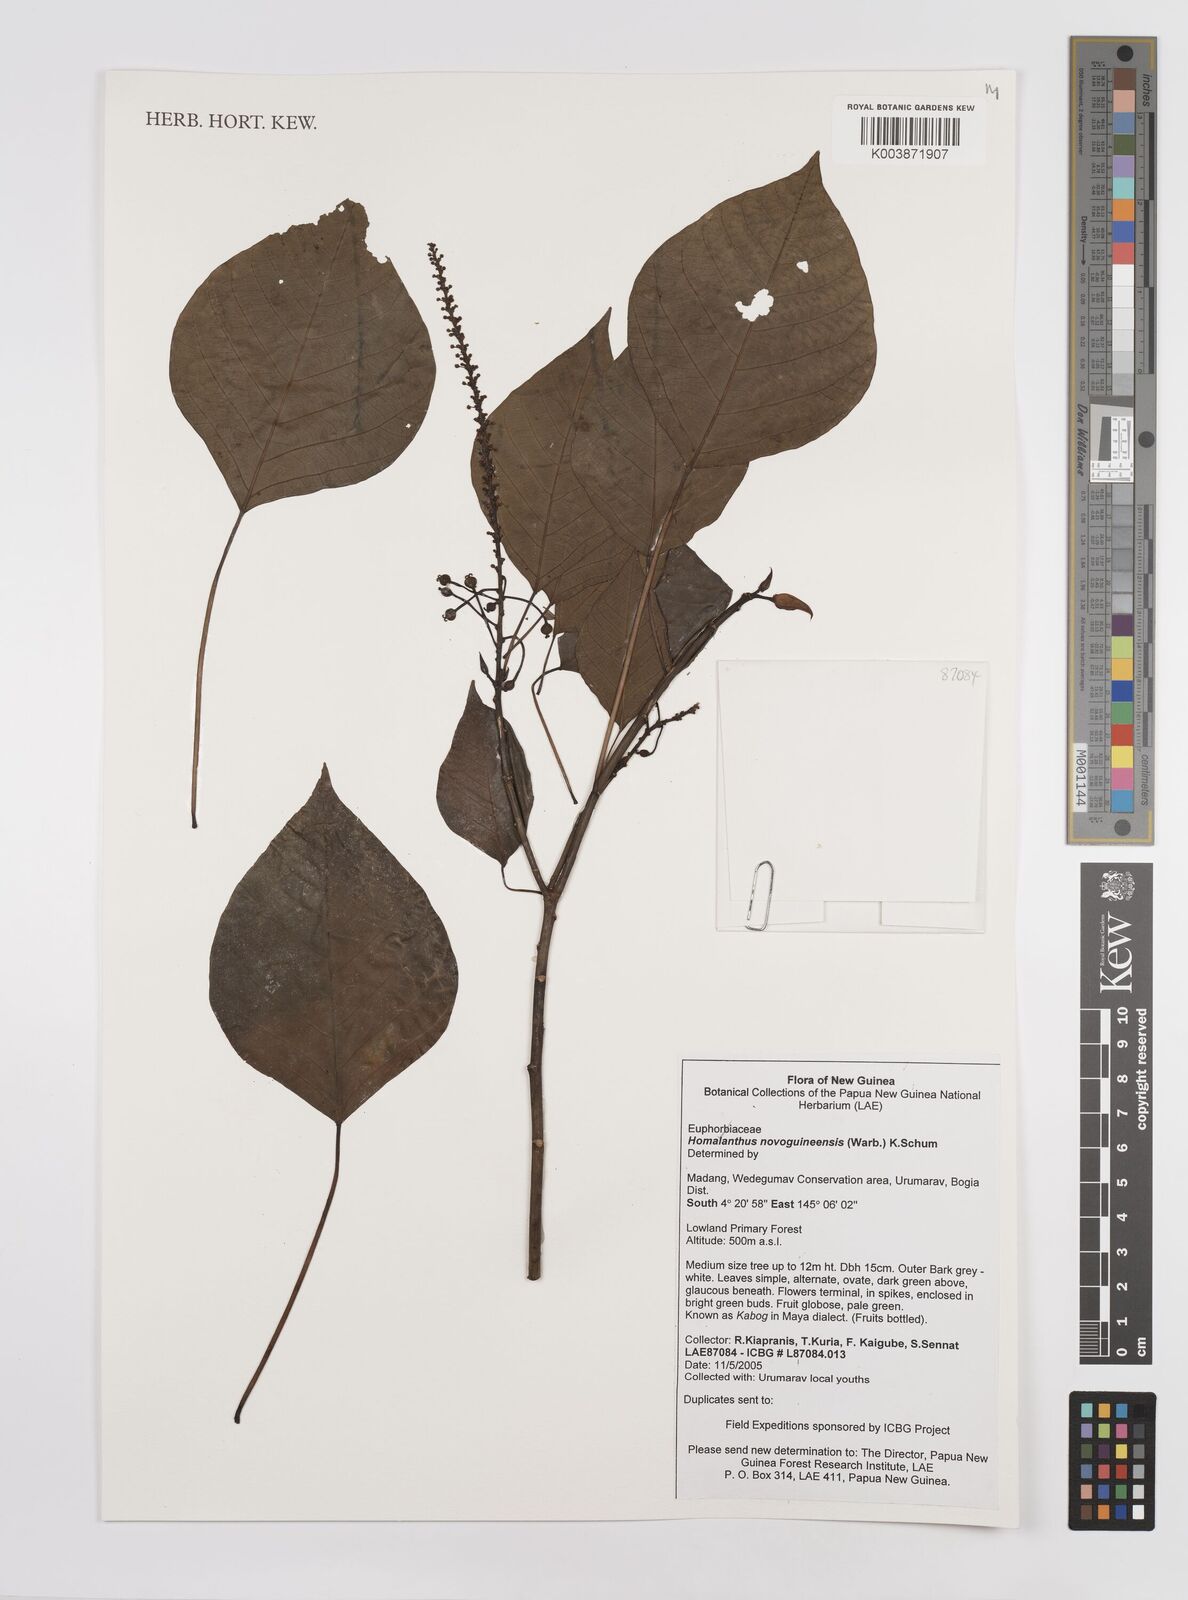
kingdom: Plantae
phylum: Tracheophyta
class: Magnoliopsida
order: Malpighiales
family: Euphorbiaceae
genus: Homalanthus
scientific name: Homalanthus novoguineensis
